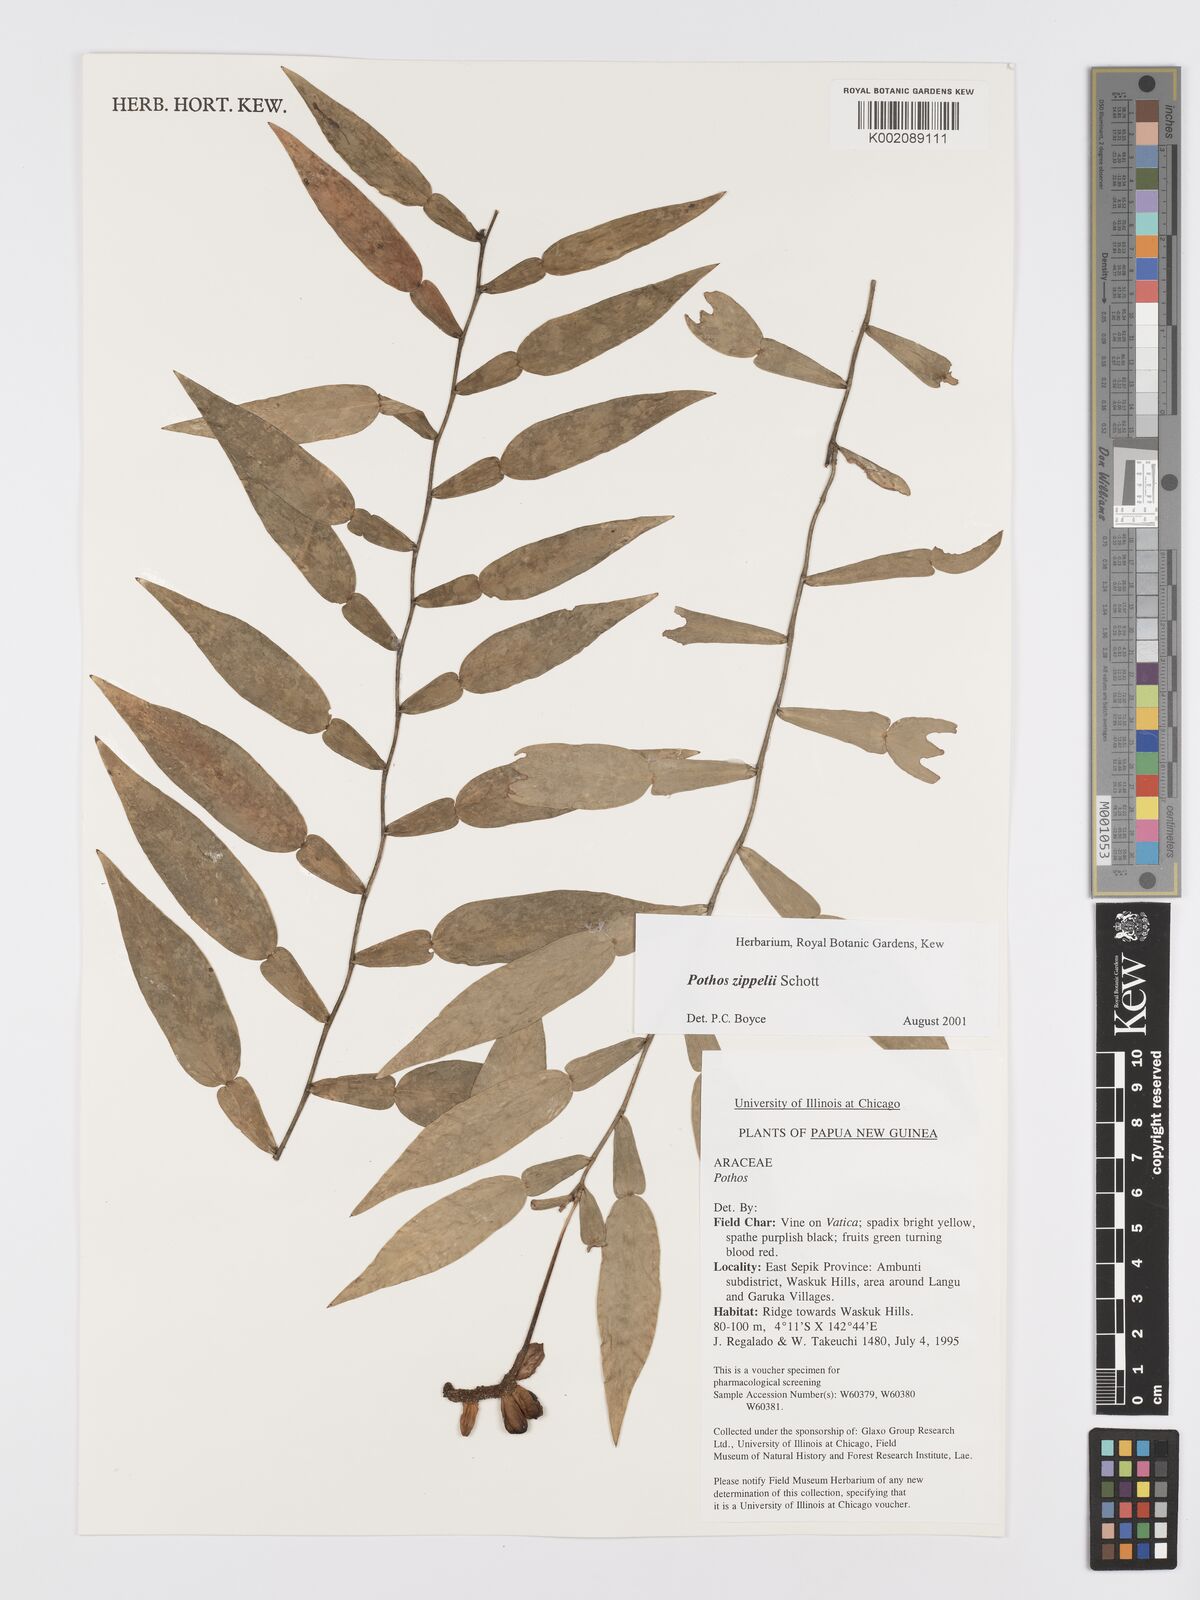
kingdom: Plantae
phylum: Tracheophyta
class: Liliopsida
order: Alismatales
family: Araceae
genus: Pothos
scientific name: Pothos zippelii
